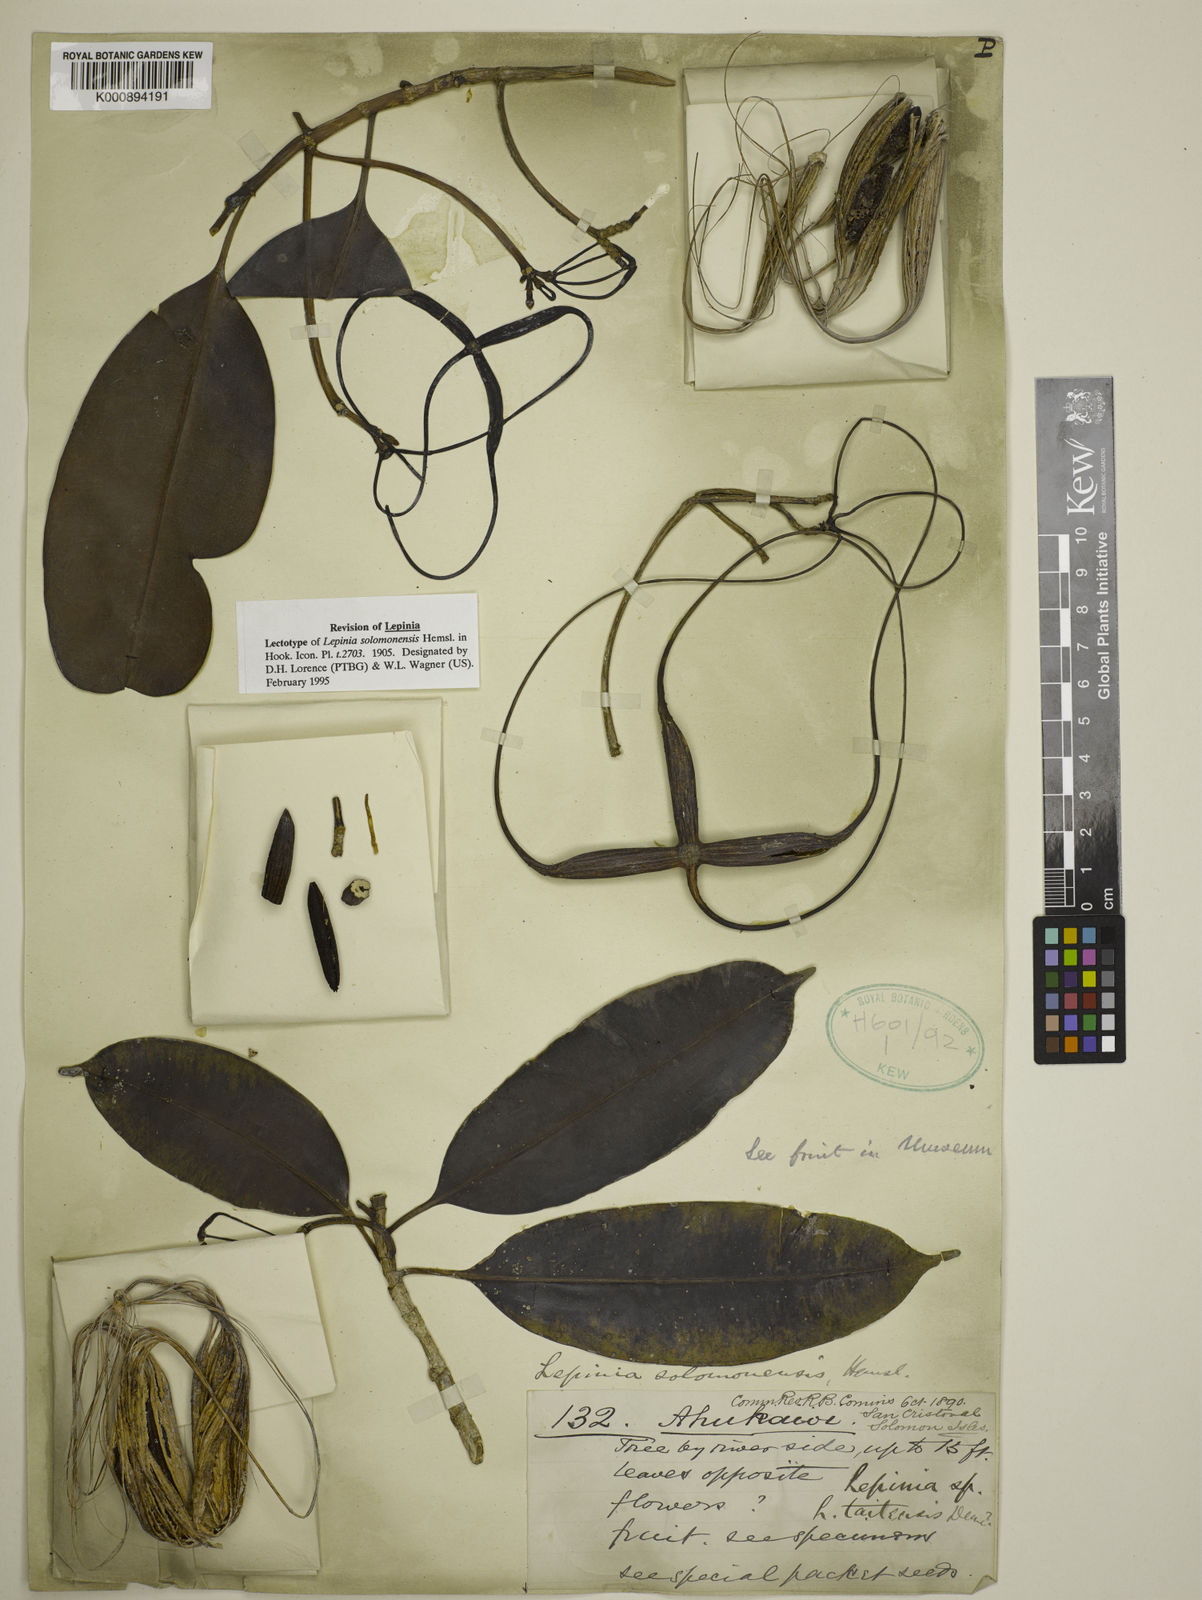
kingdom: Plantae
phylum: Tracheophyta
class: Magnoliopsida
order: Gentianales
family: Apocynaceae
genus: Lepinia
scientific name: Lepinia solomonensis
